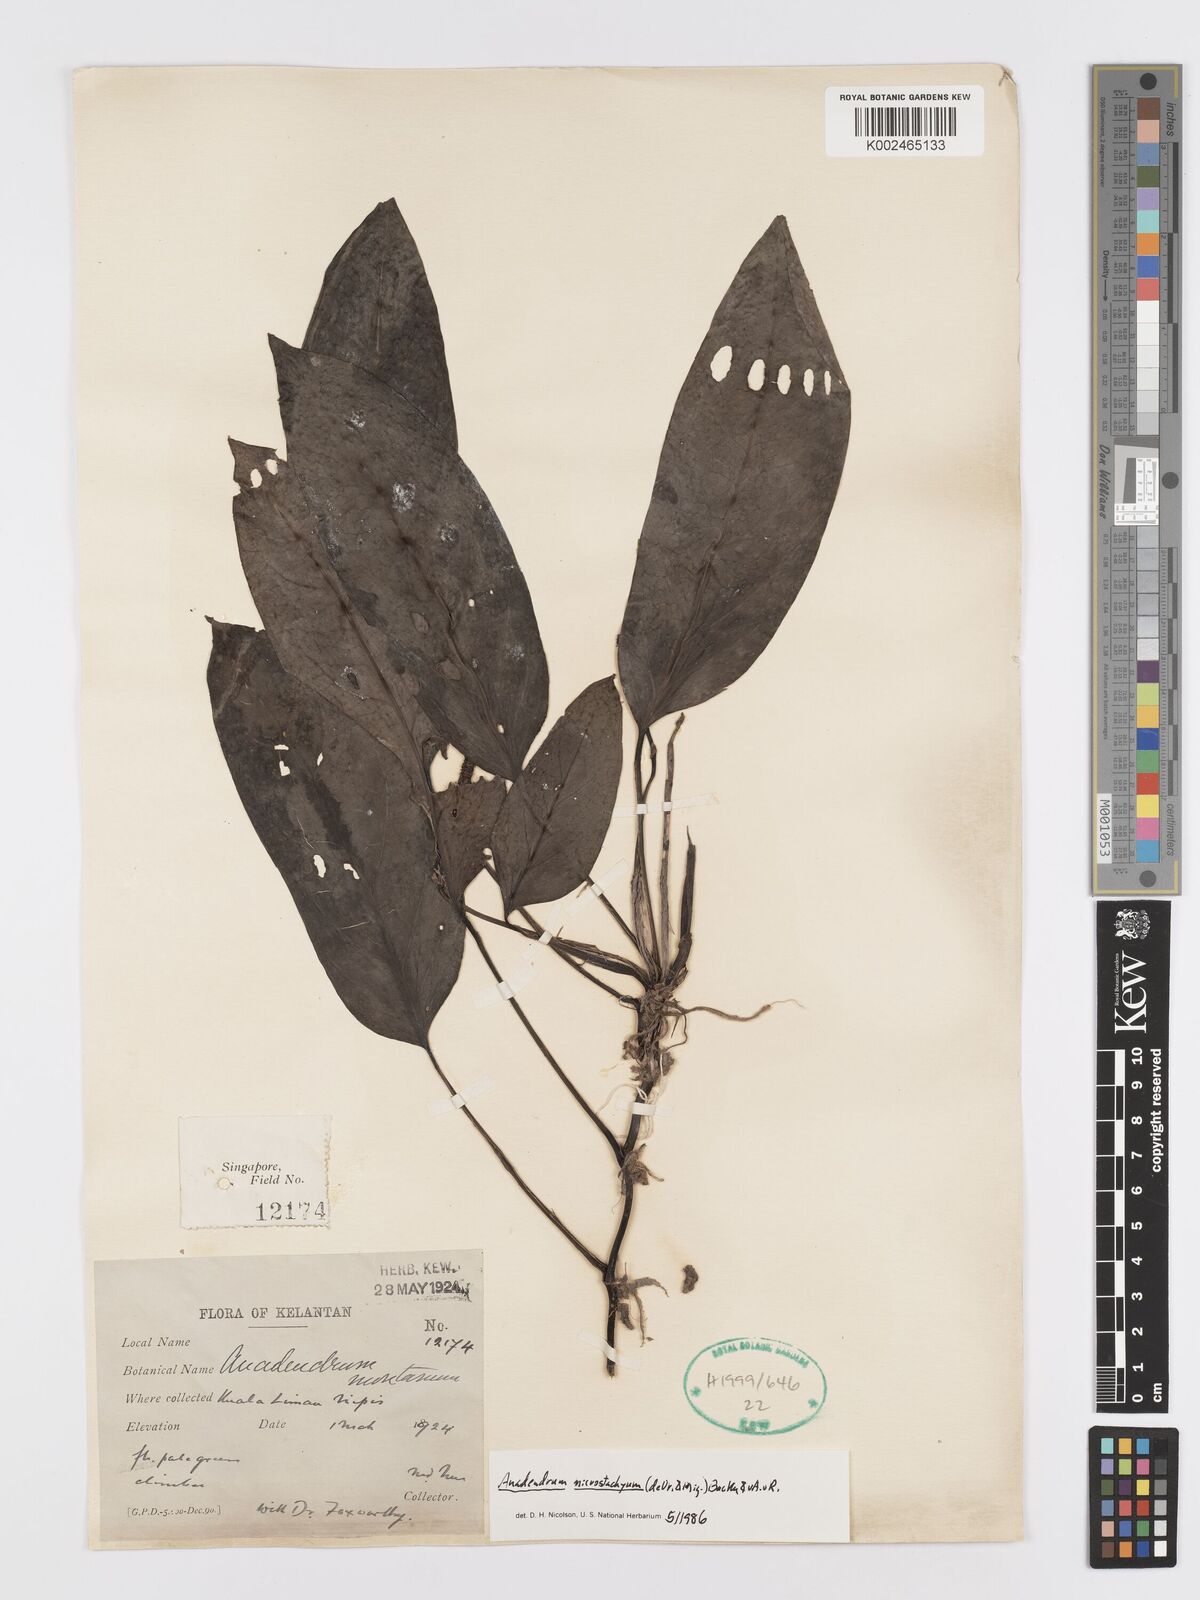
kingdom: Plantae
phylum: Tracheophyta
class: Liliopsida
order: Alismatales
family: Araceae
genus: Anadendrum
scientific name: Anadendrum microstachyum
